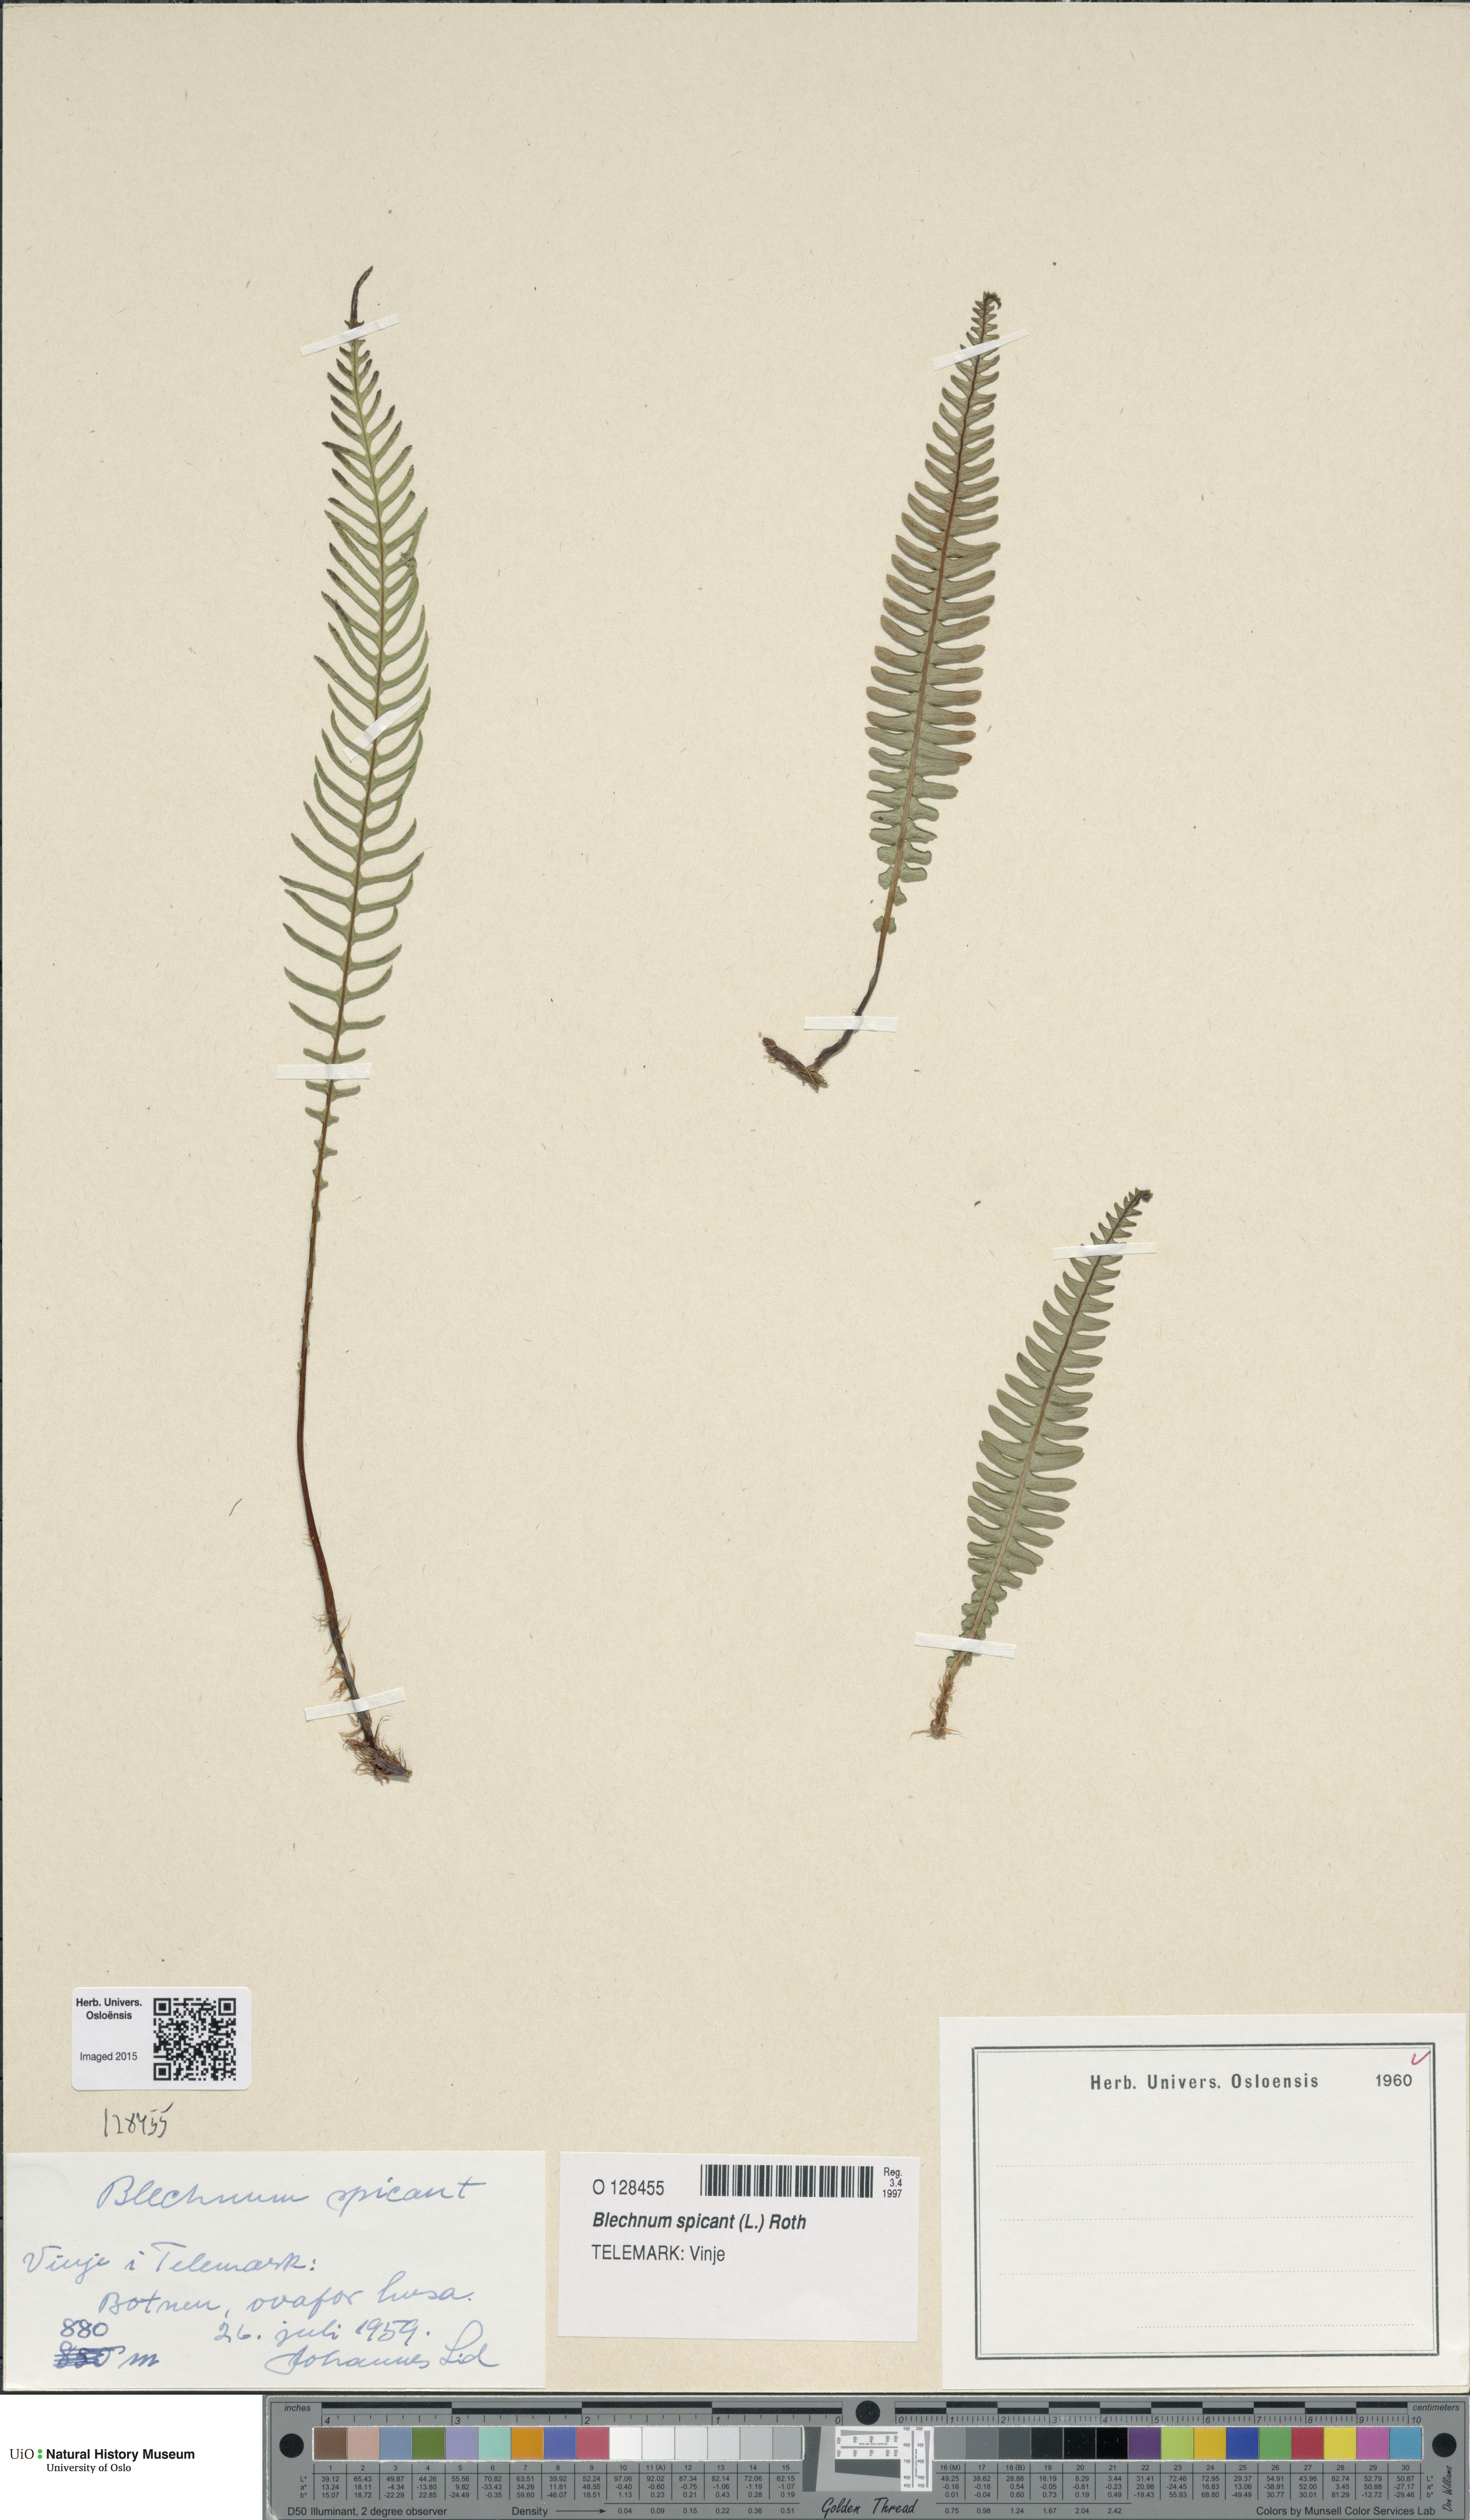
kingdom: Plantae
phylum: Tracheophyta
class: Polypodiopsida
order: Polypodiales
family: Blechnaceae
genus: Struthiopteris
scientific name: Struthiopteris spicant
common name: Deer fern
